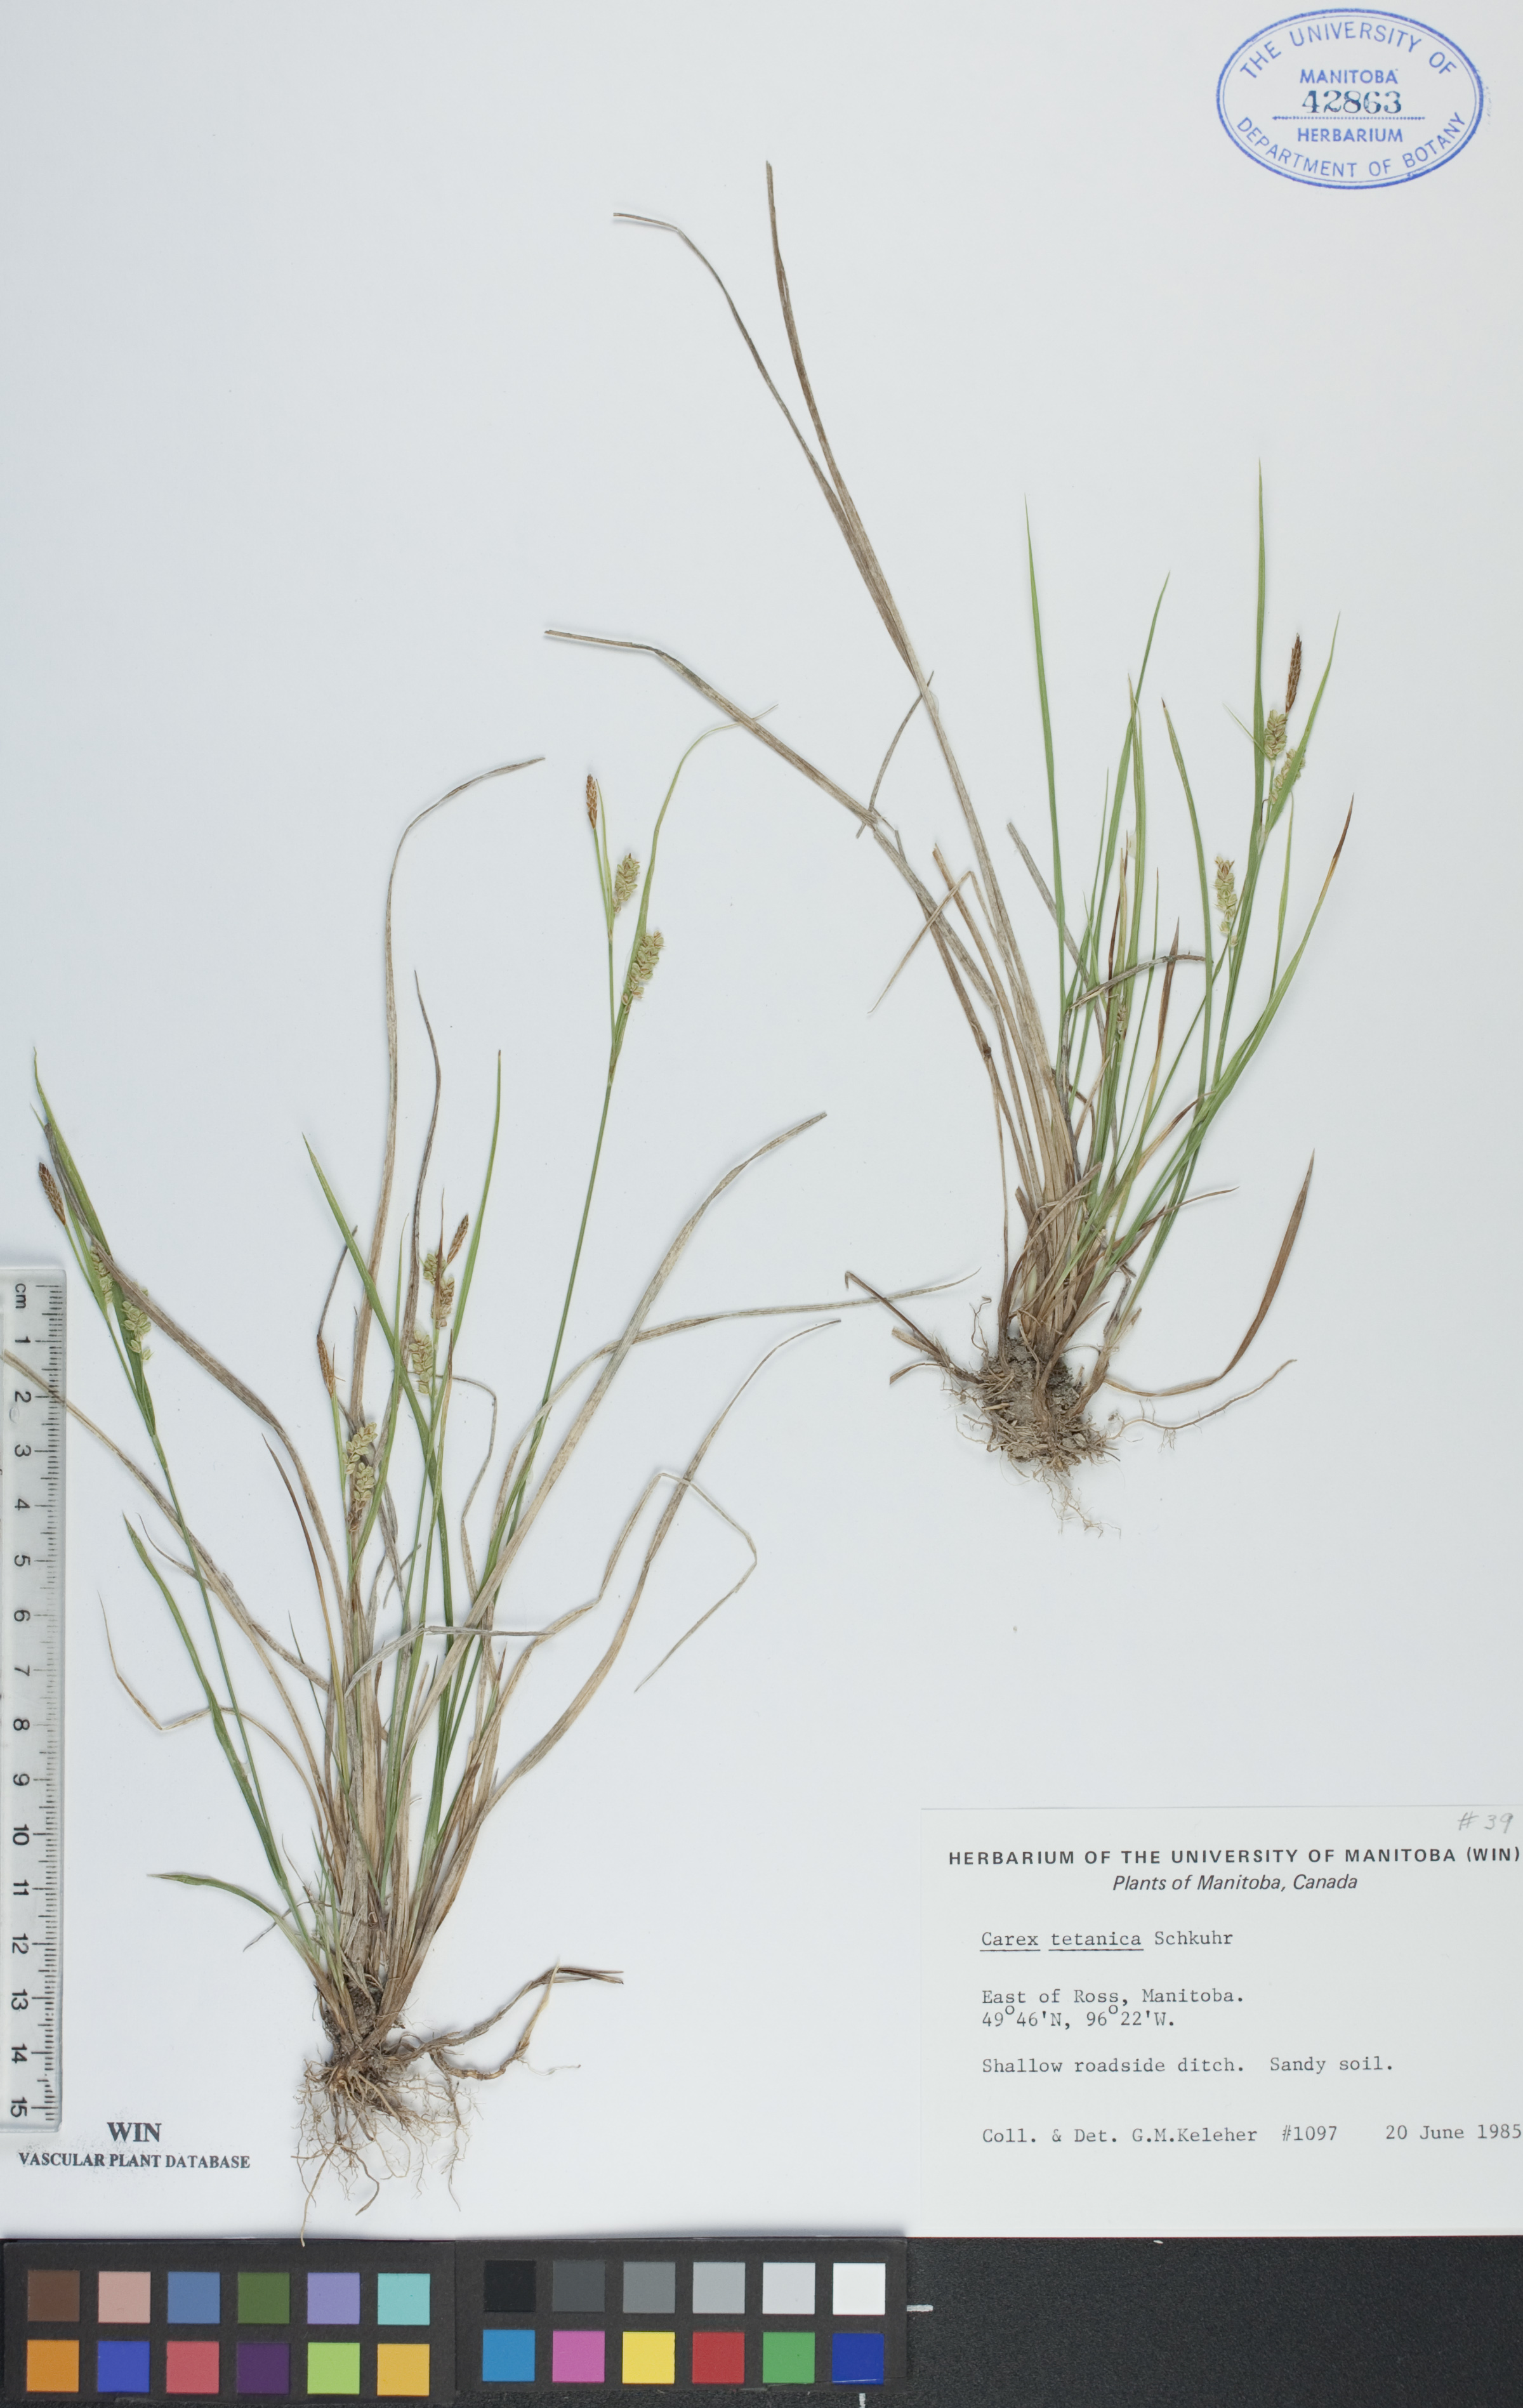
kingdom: Plantae
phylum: Tracheophyta
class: Liliopsida
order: Poales
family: Cyperaceae
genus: Carex
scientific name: Carex tetanica
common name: Rigid sedge
